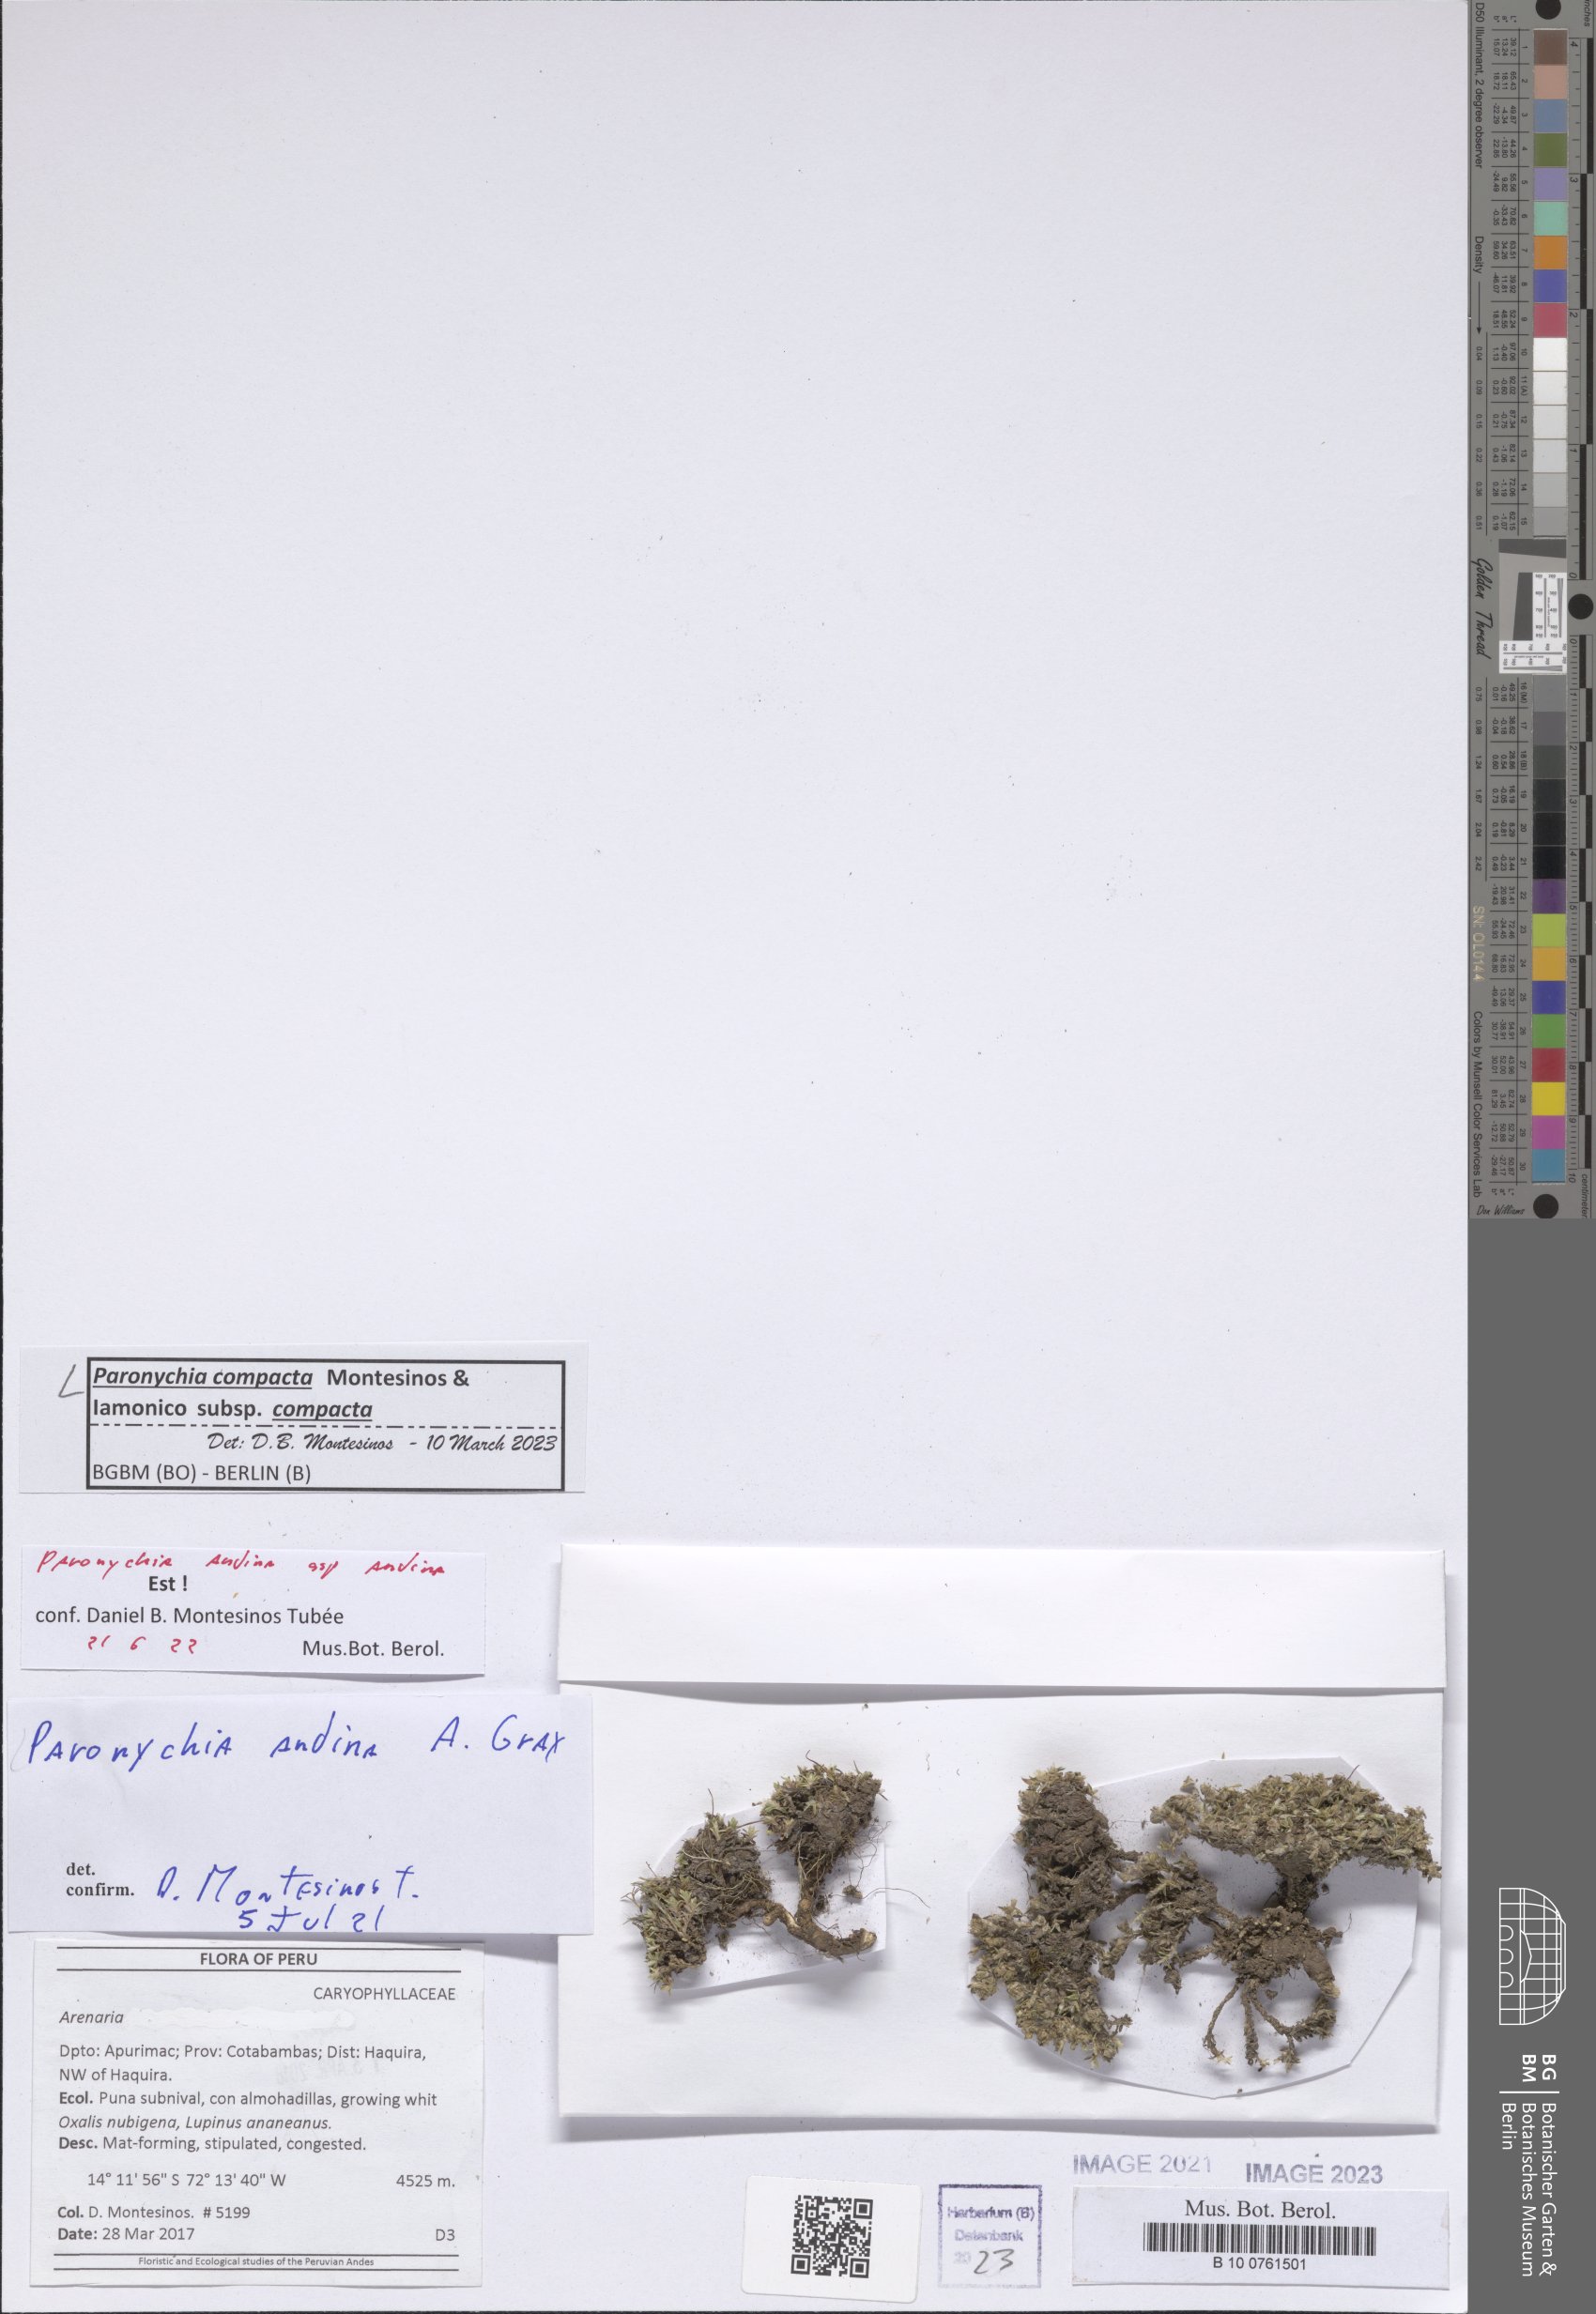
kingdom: Plantae
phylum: Tracheophyta
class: Magnoliopsida
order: Caryophyllales
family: Caryophyllaceae
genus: Paronychia
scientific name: Paronychia
